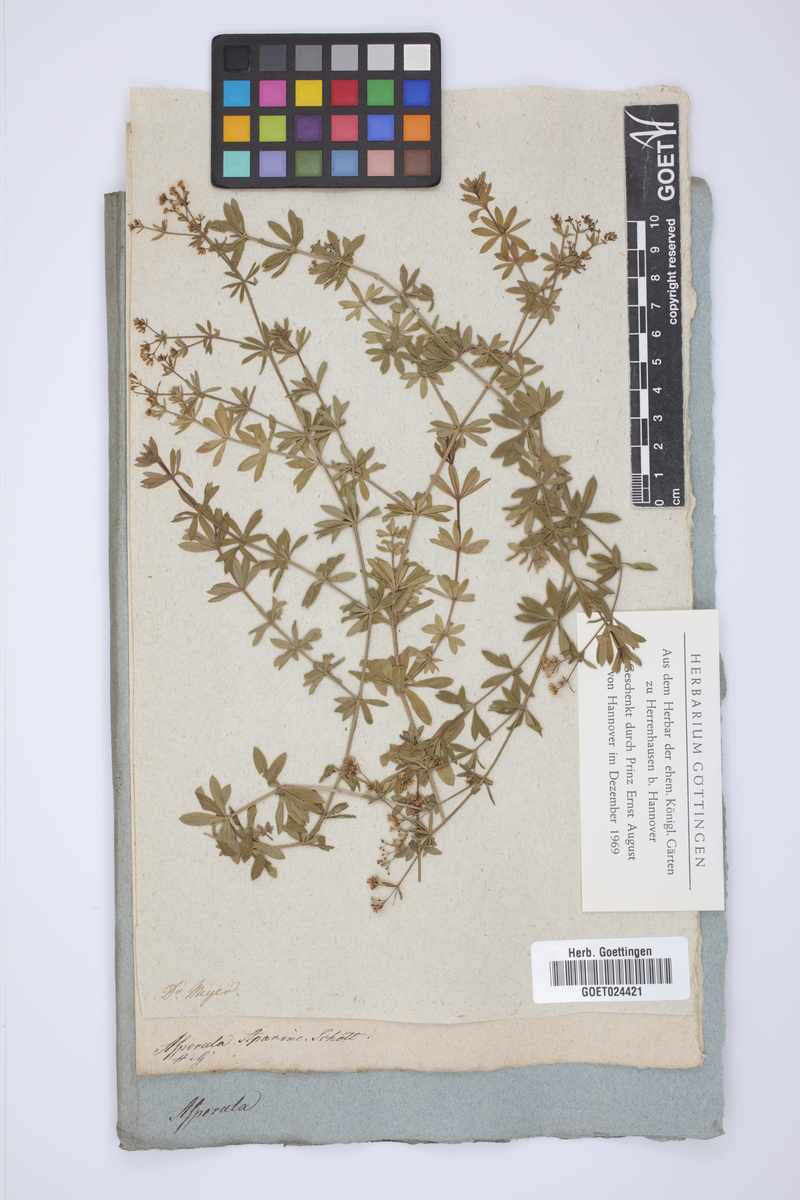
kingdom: Plantae
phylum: Tracheophyta
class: Magnoliopsida
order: Gentianales
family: Rubiaceae
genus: Galium
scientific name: Galium pseudorivale
